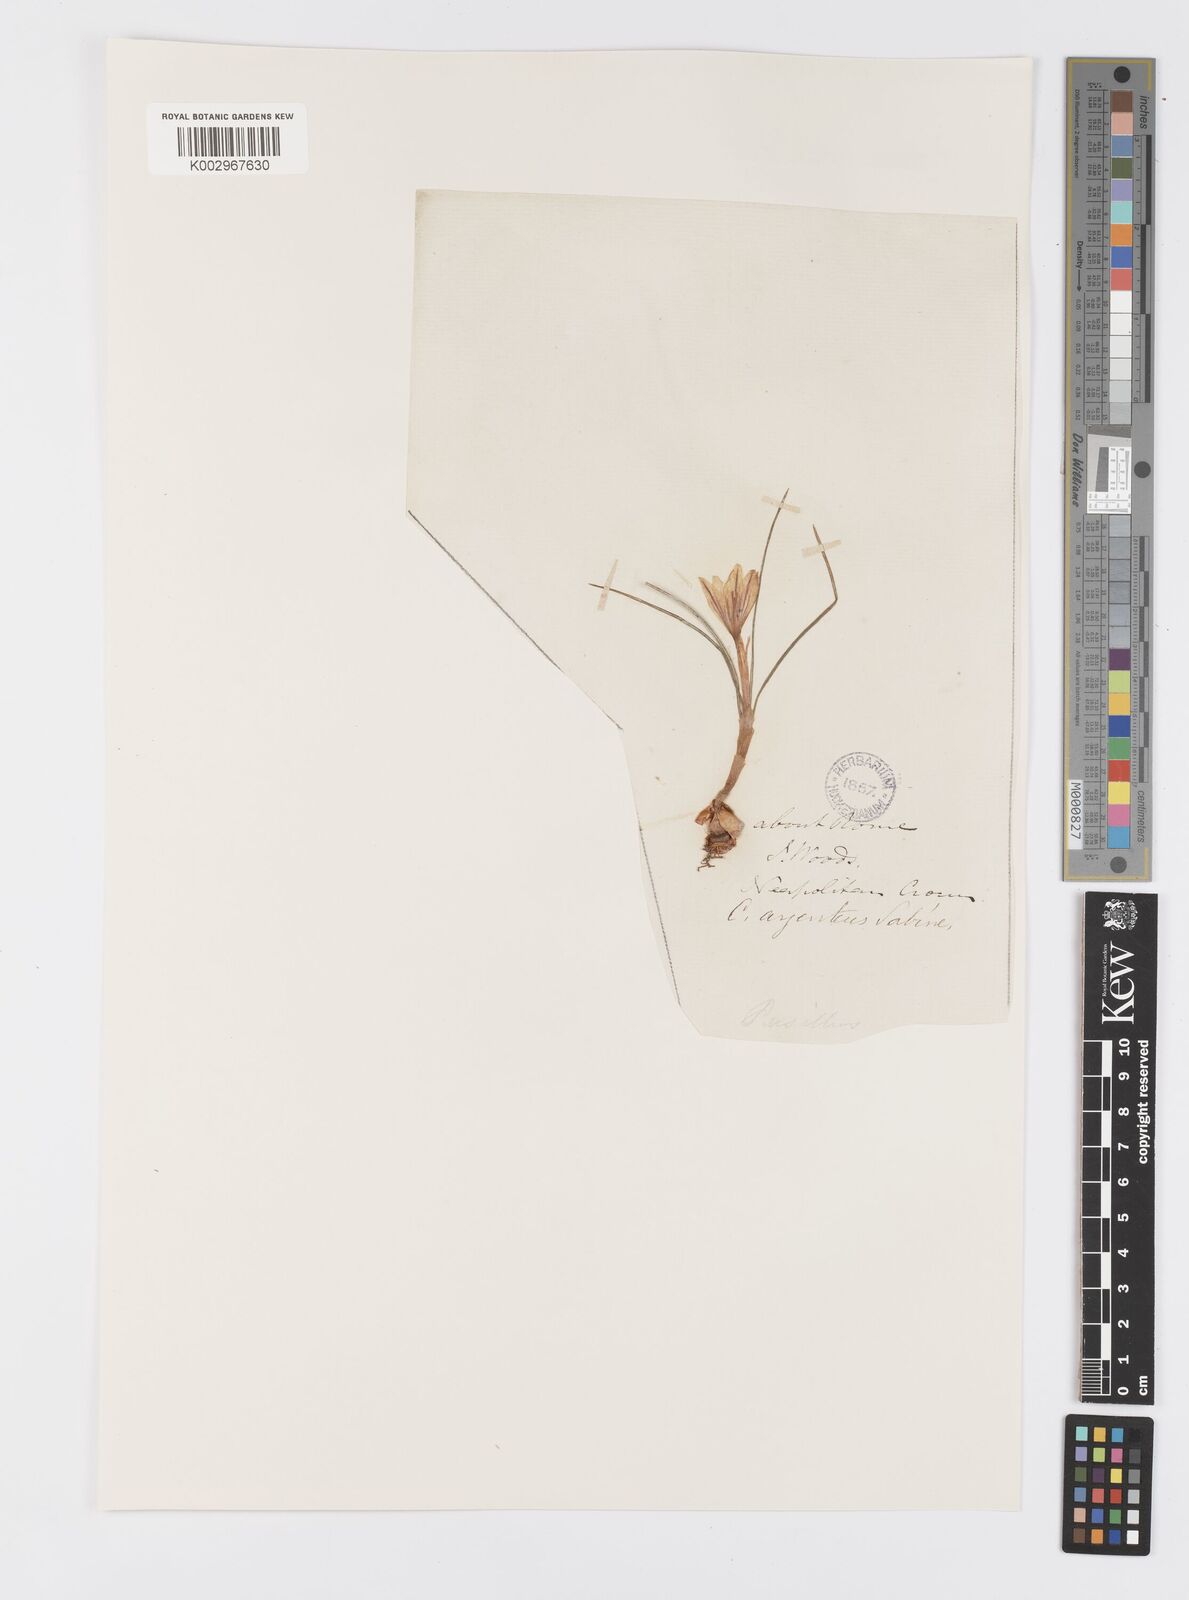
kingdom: Plantae
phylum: Tracheophyta
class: Liliopsida
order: Asparagales
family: Iridaceae
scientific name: Iridaceae
